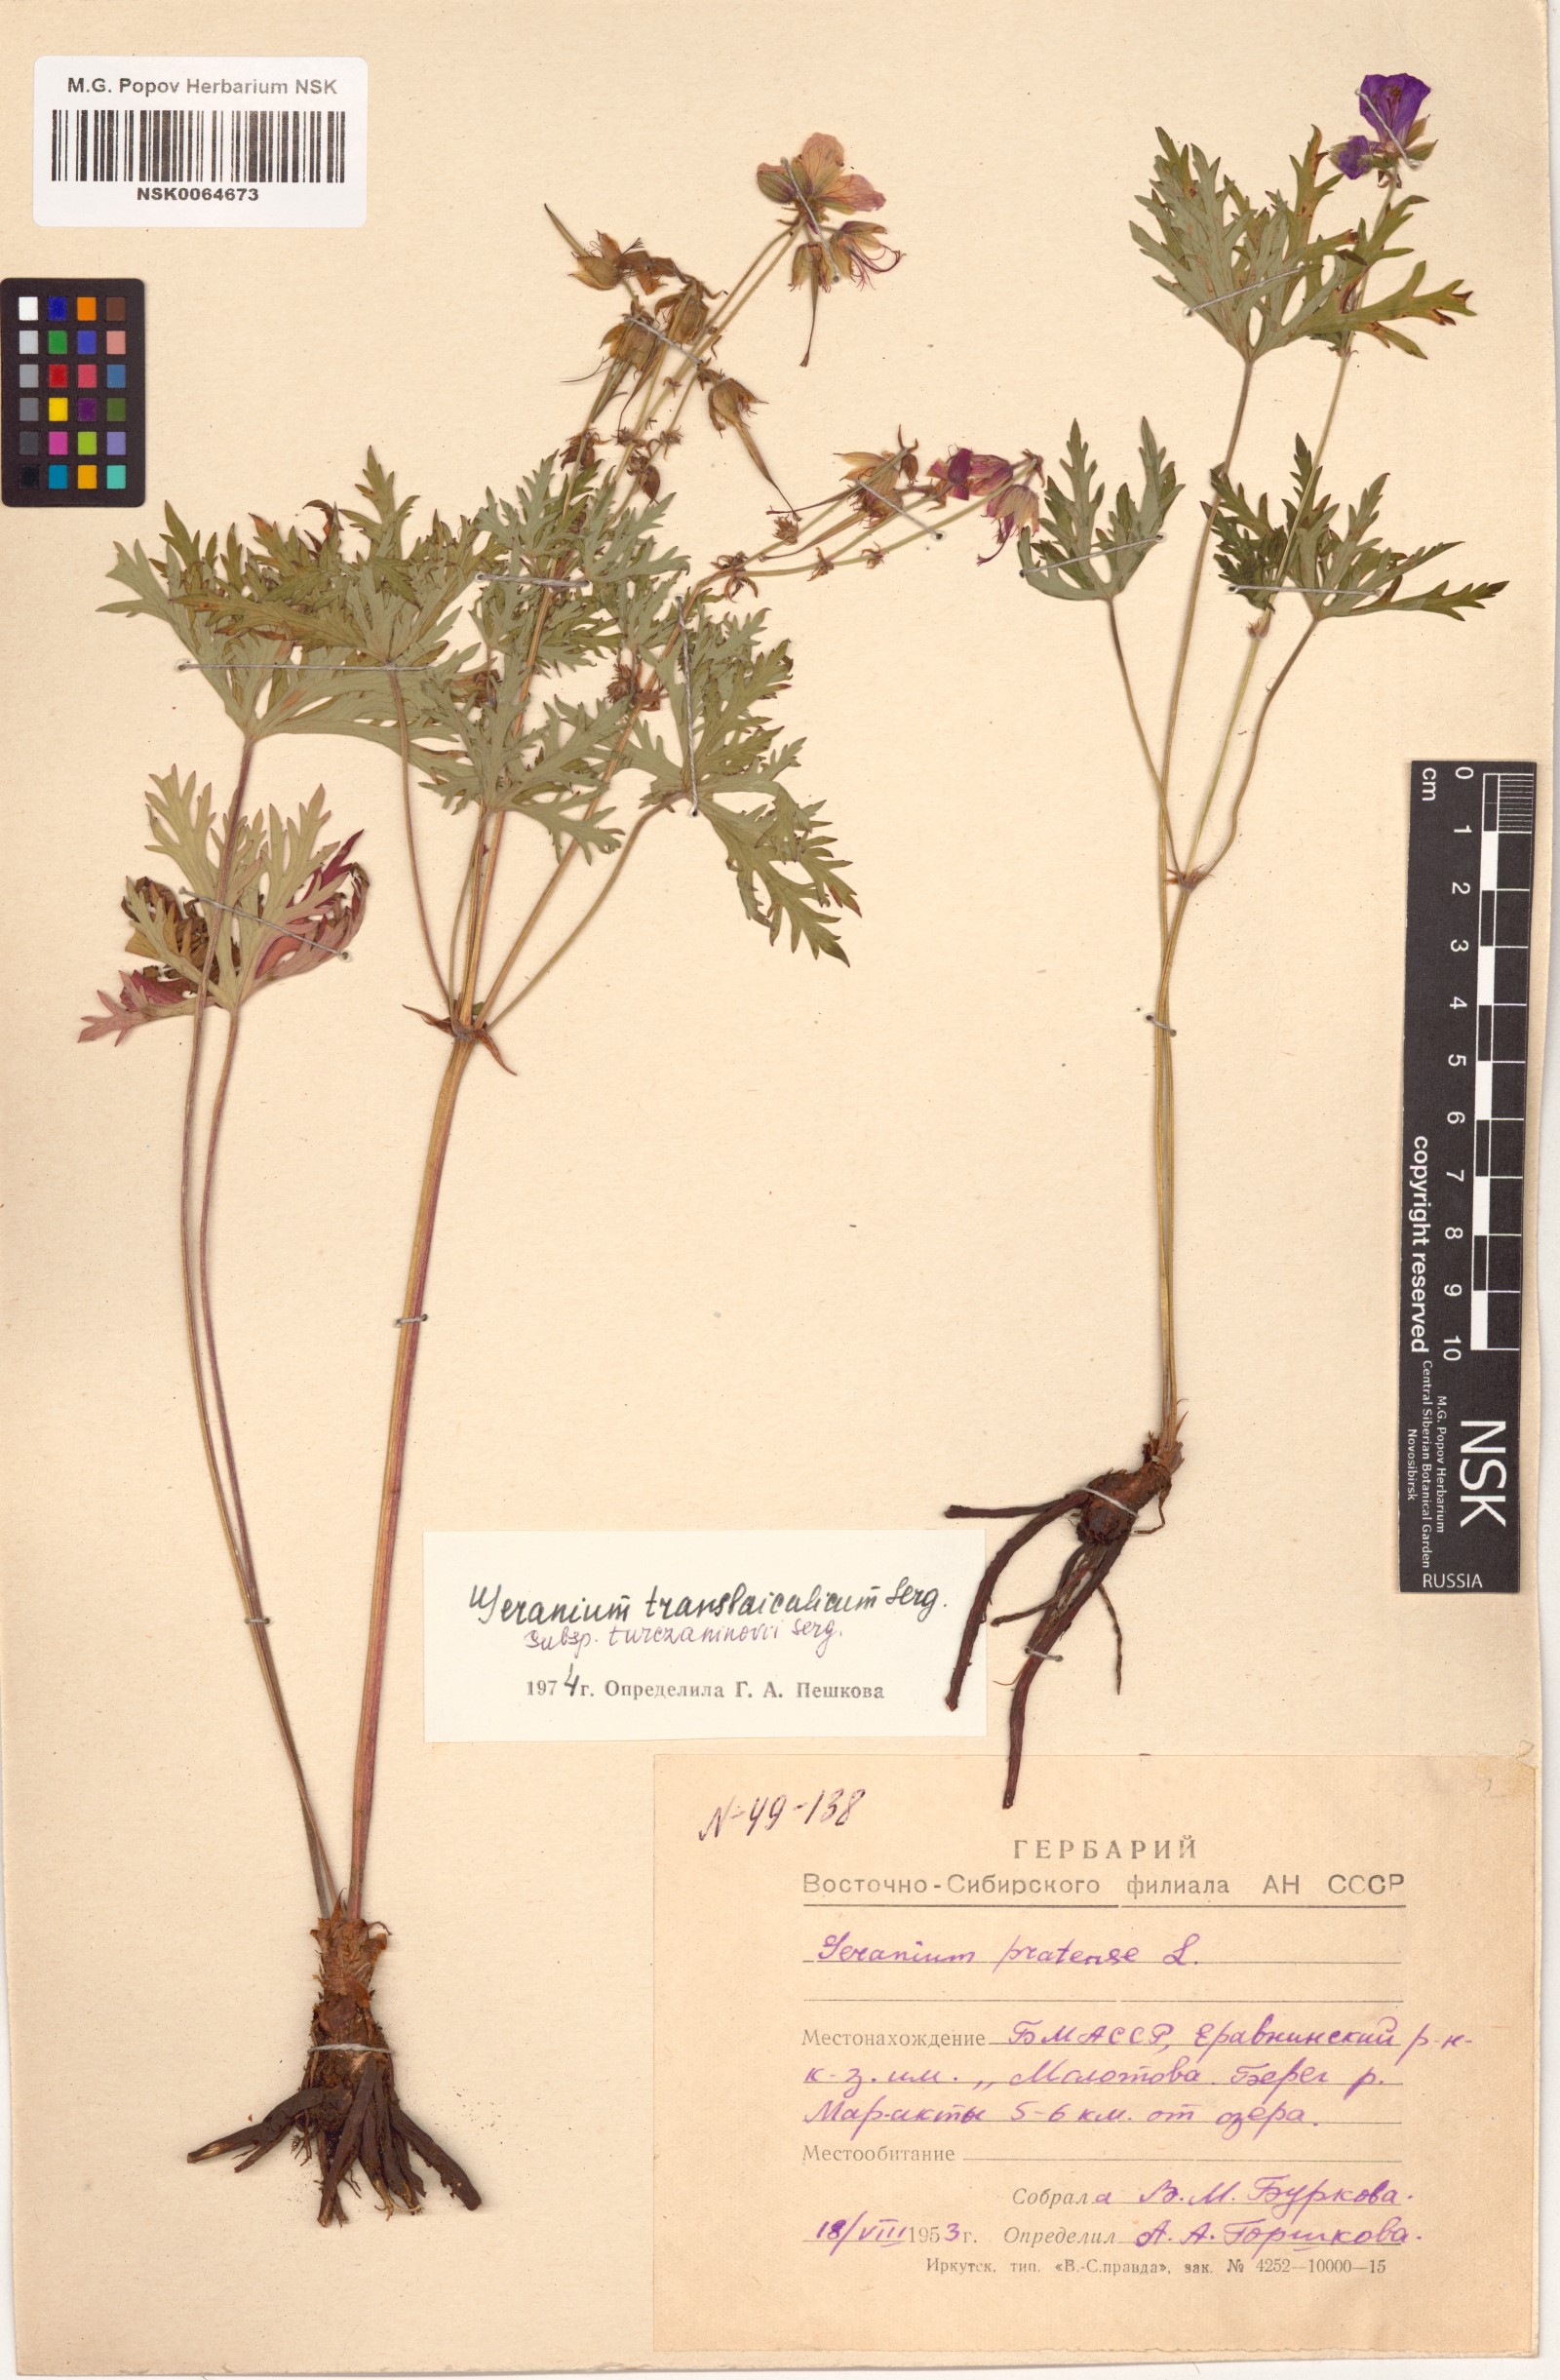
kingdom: Plantae
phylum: Tracheophyta
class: Magnoliopsida
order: Geraniales
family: Geraniaceae
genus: Geranium
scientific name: Geranium pratense
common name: Meadow crane's-bill
